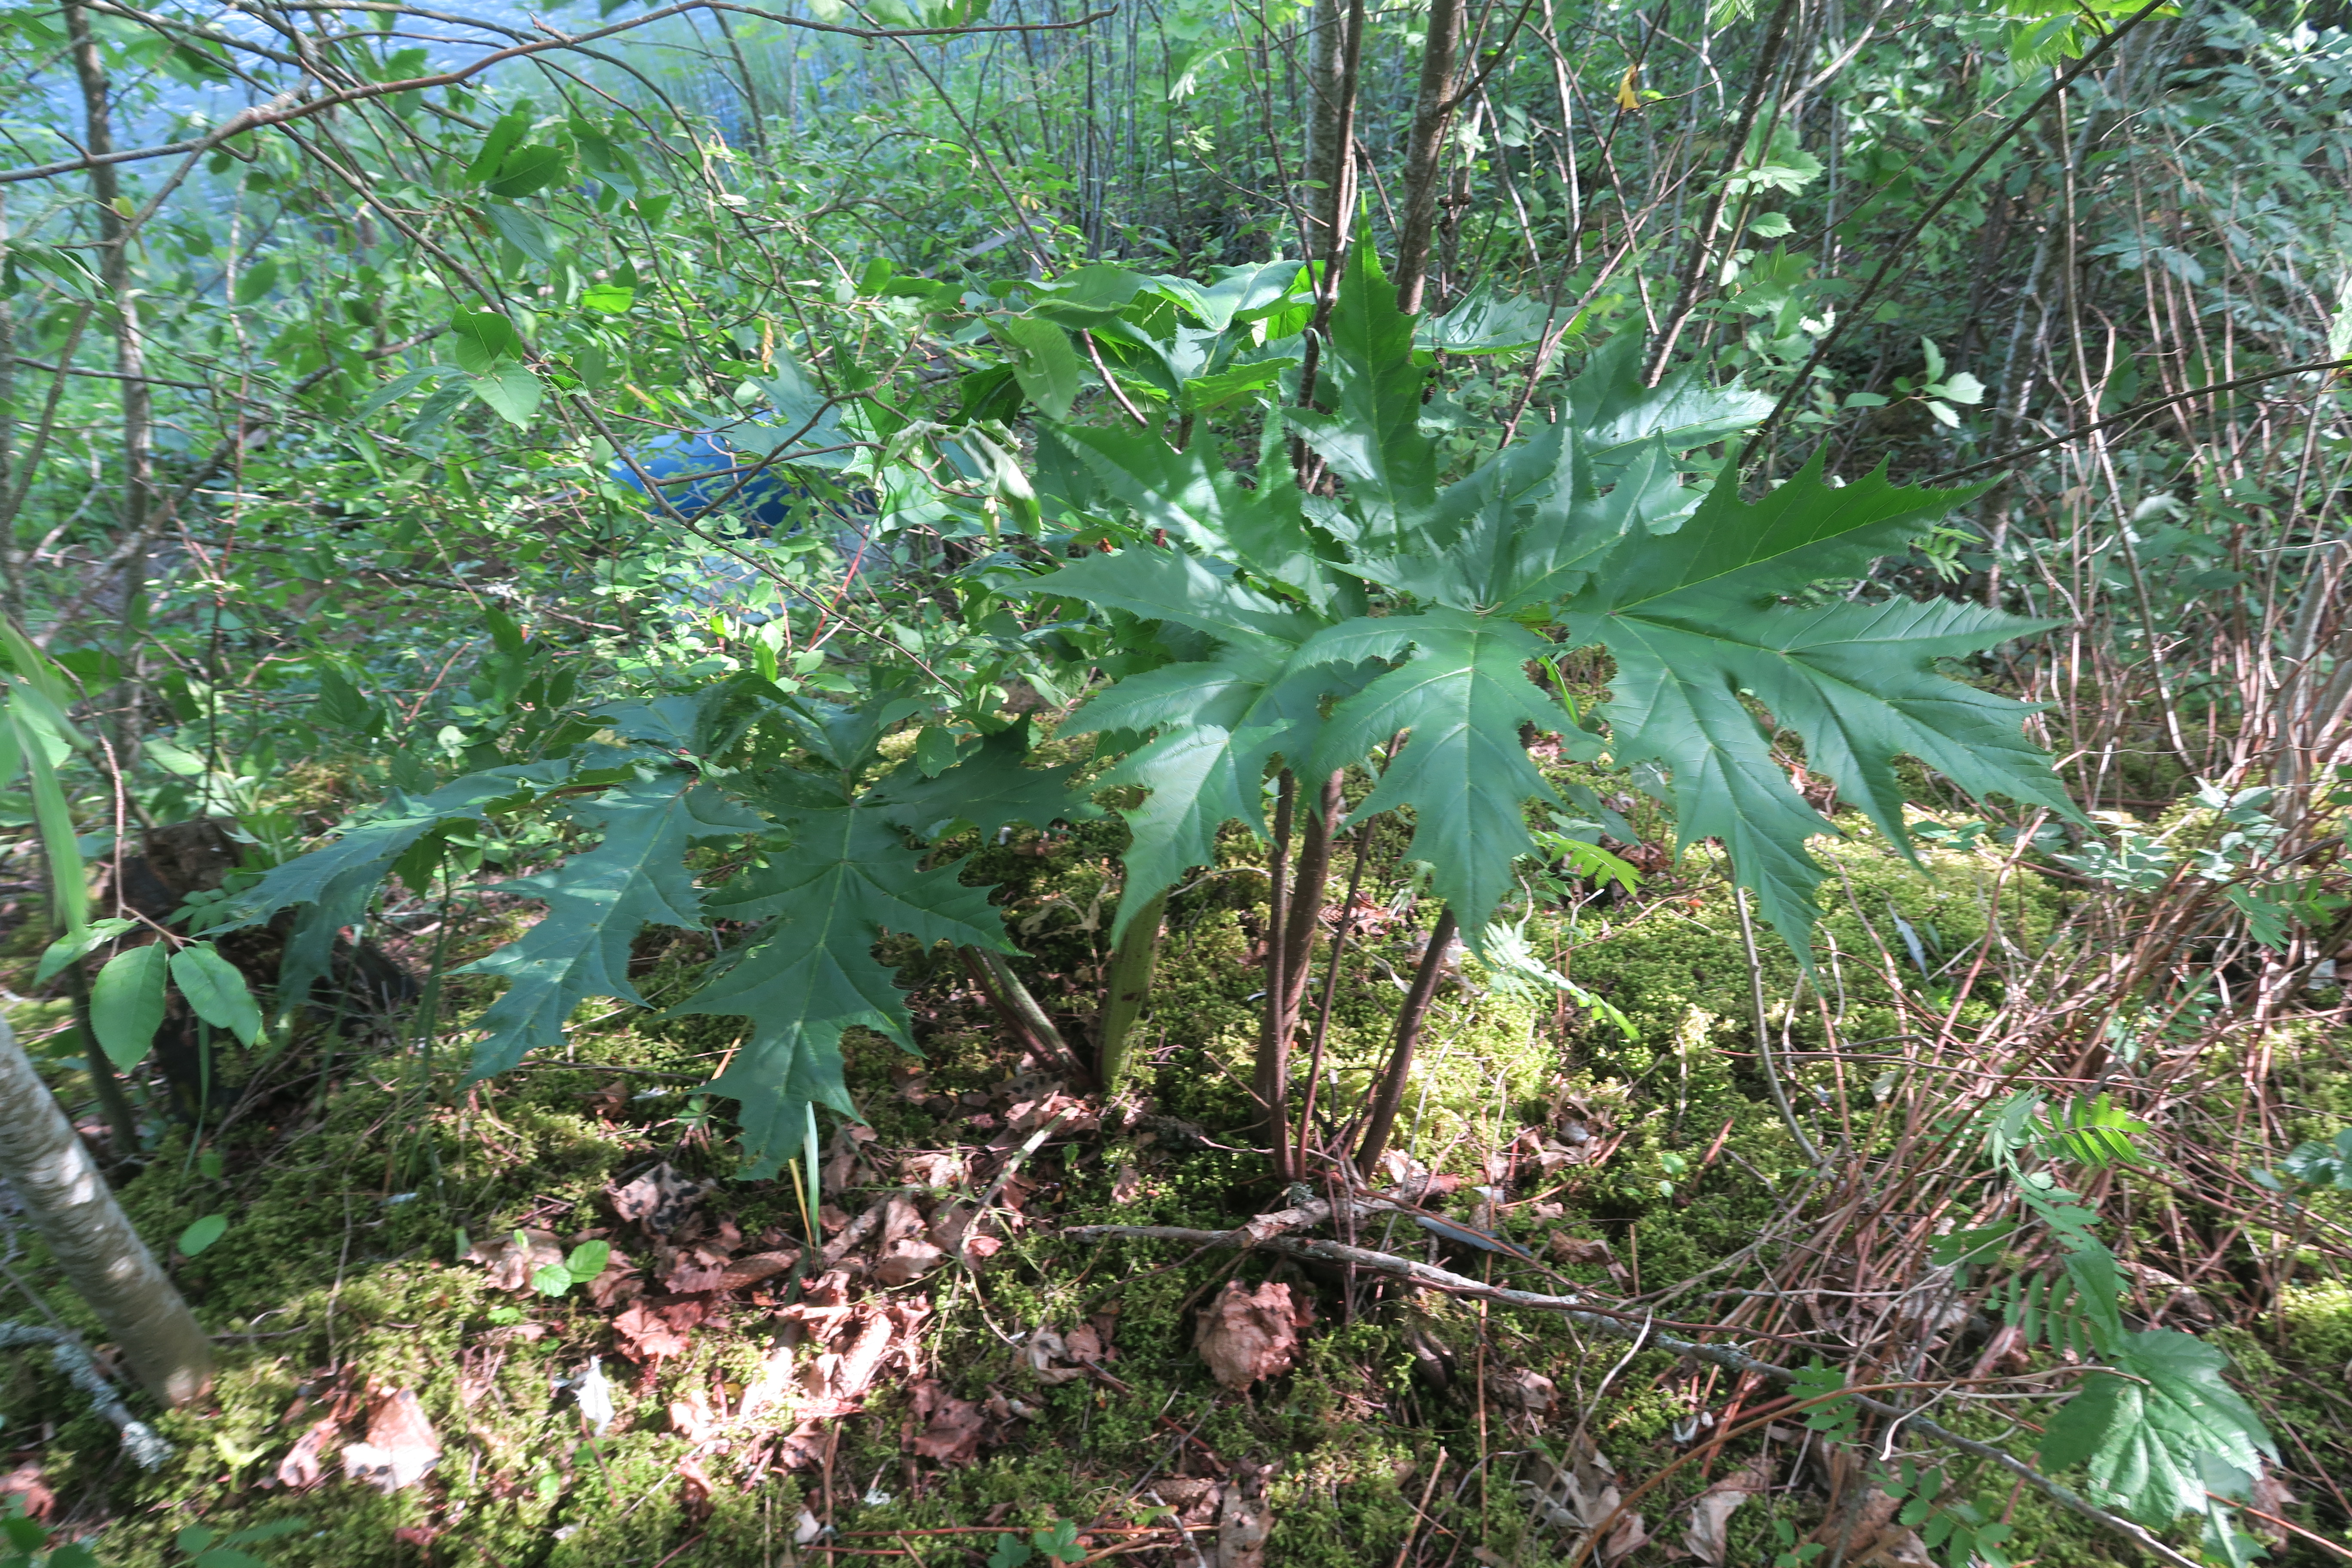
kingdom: Plantae
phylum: Tracheophyta
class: Magnoliopsida
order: Apiales
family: Apiaceae
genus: Heracleum
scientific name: Heracleum
